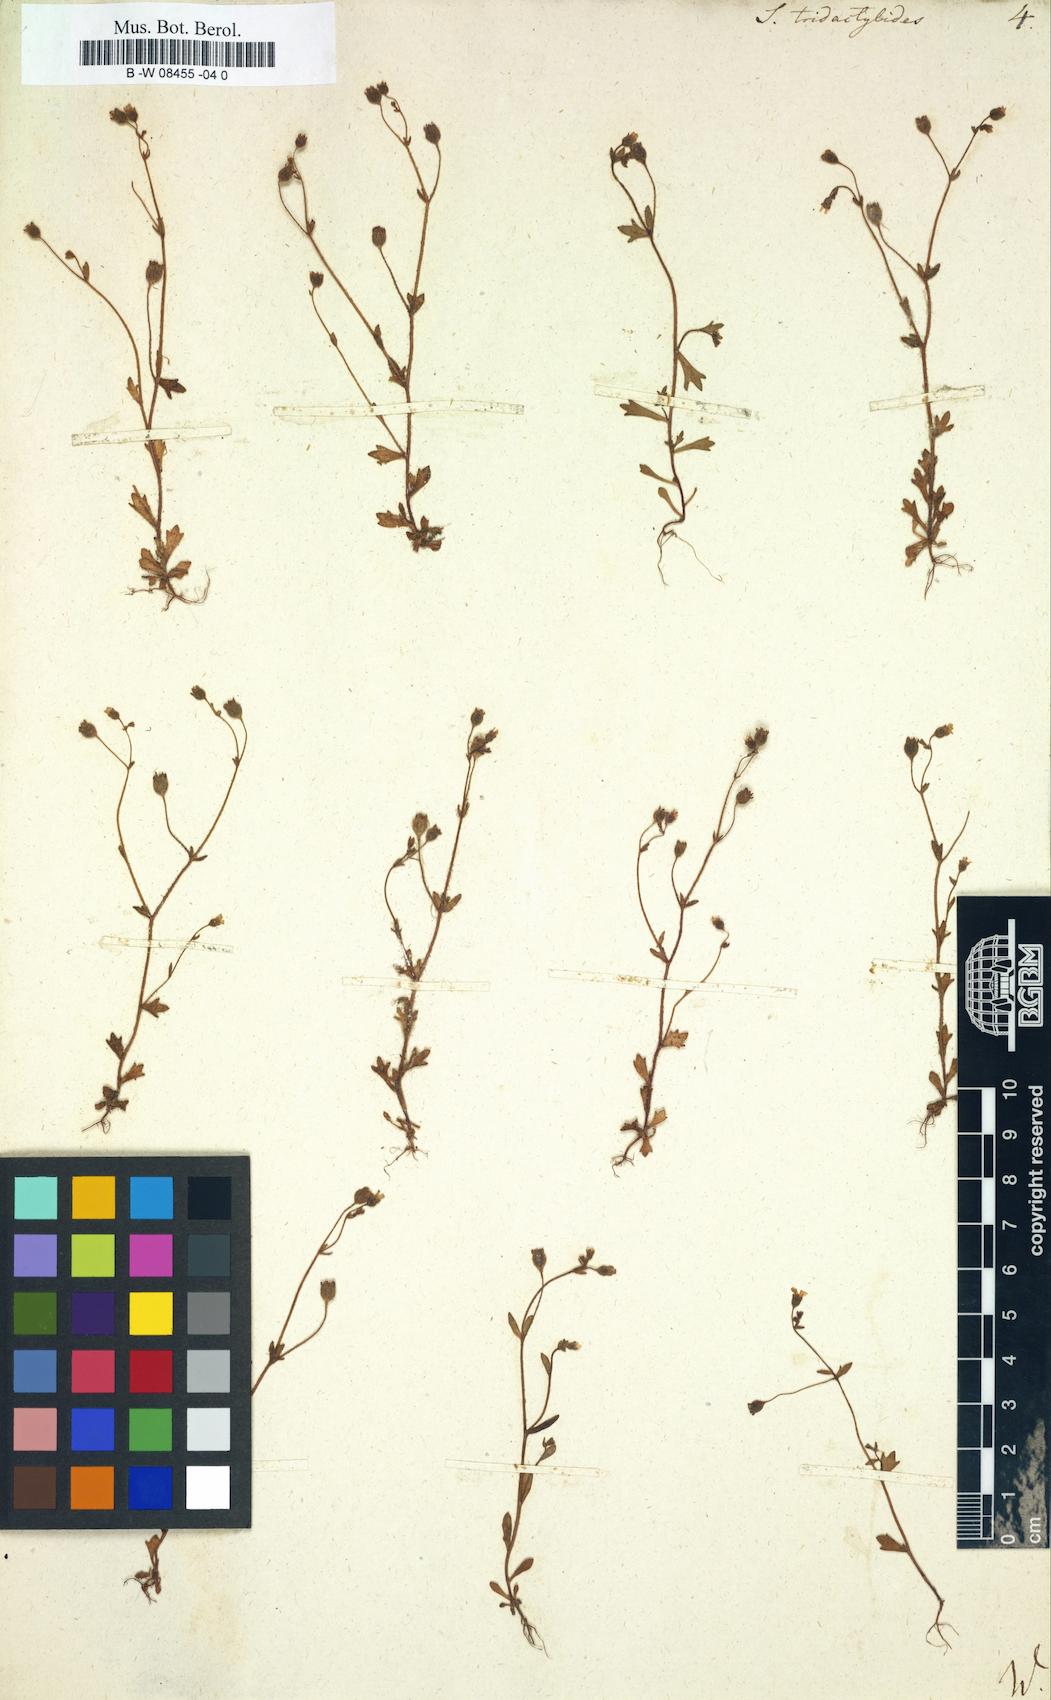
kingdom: Plantae
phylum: Tracheophyta
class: Magnoliopsida
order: Saxifragales
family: Saxifragaceae
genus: Saxifraga
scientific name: Saxifraga tridactylites
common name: Rue-leaved saxifrage
